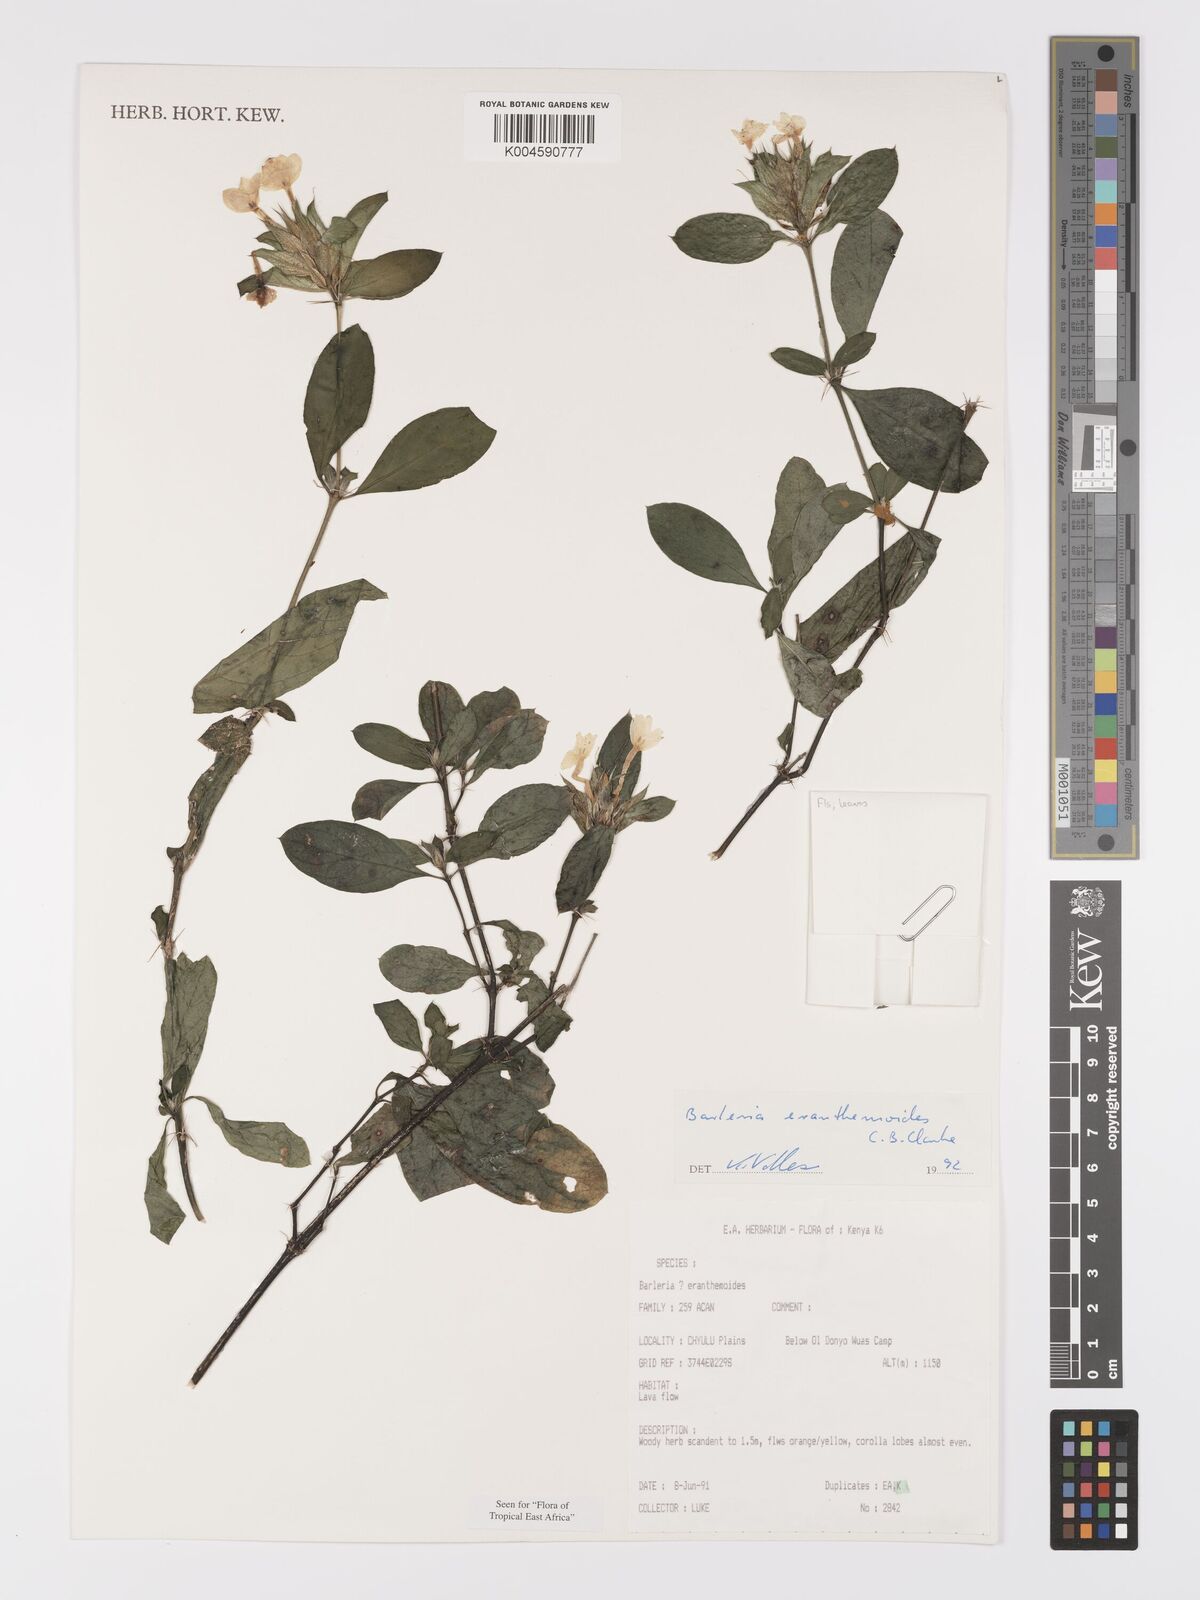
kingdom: Plantae
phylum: Tracheophyta
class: Magnoliopsida
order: Lamiales
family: Acanthaceae
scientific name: Acanthaceae
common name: Acanthaceae
